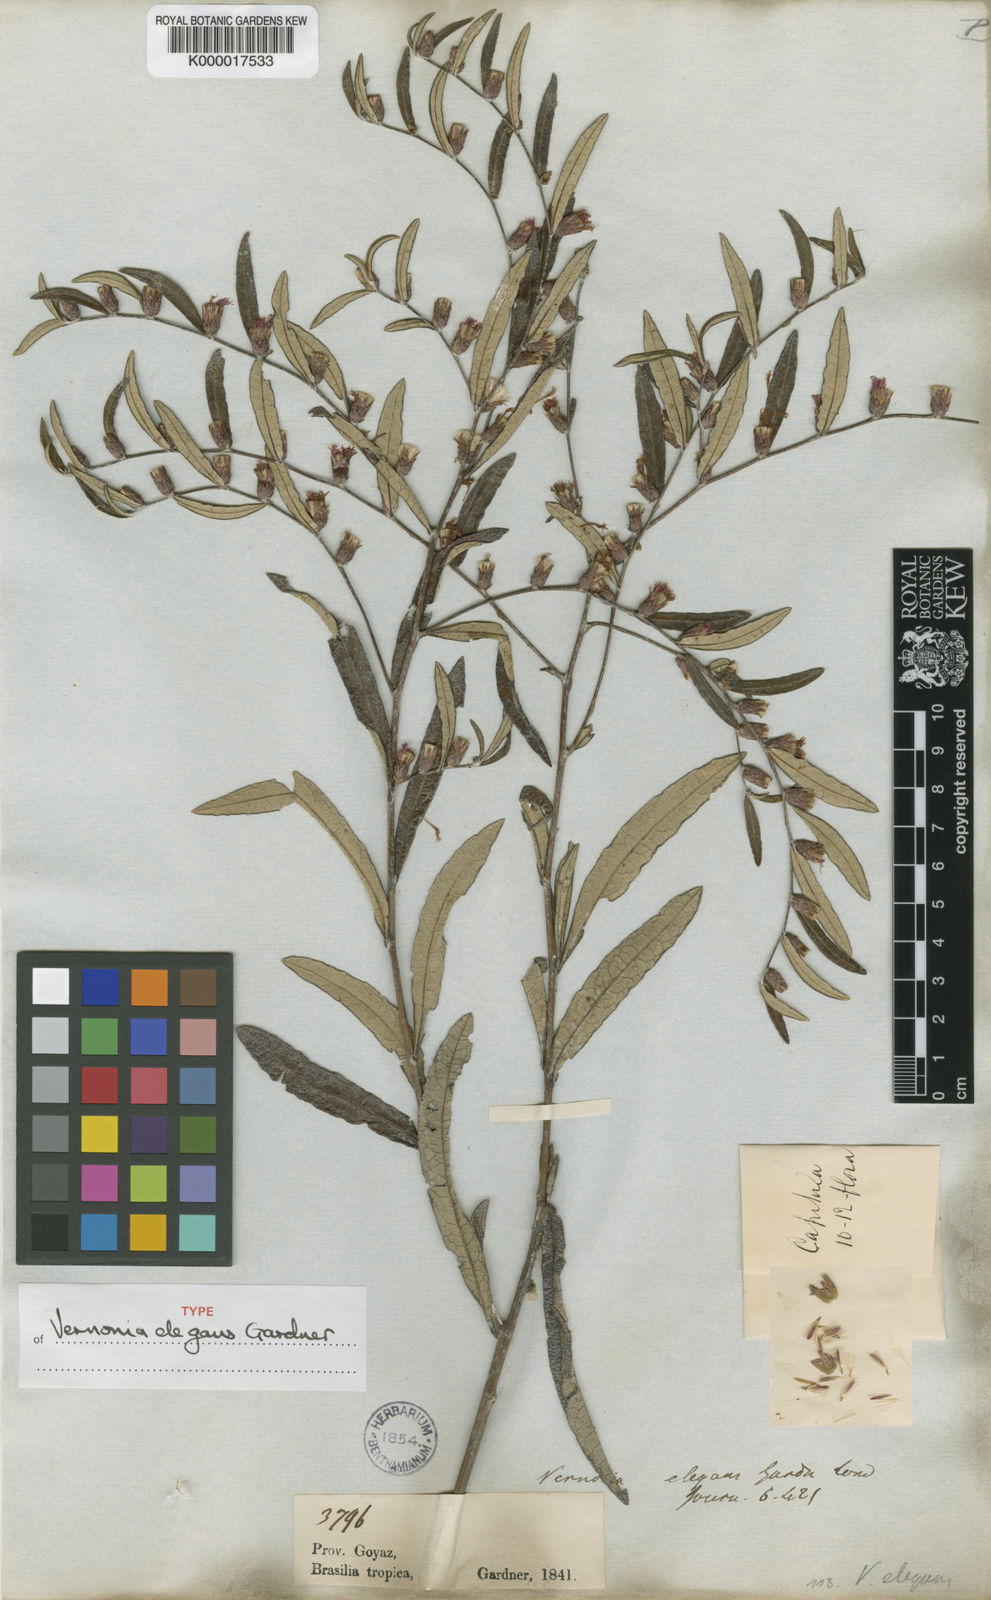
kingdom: Plantae
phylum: Tracheophyta
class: Magnoliopsida
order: Asterales
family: Asteraceae
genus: Lessingianthus
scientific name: Lessingianthus elegans
